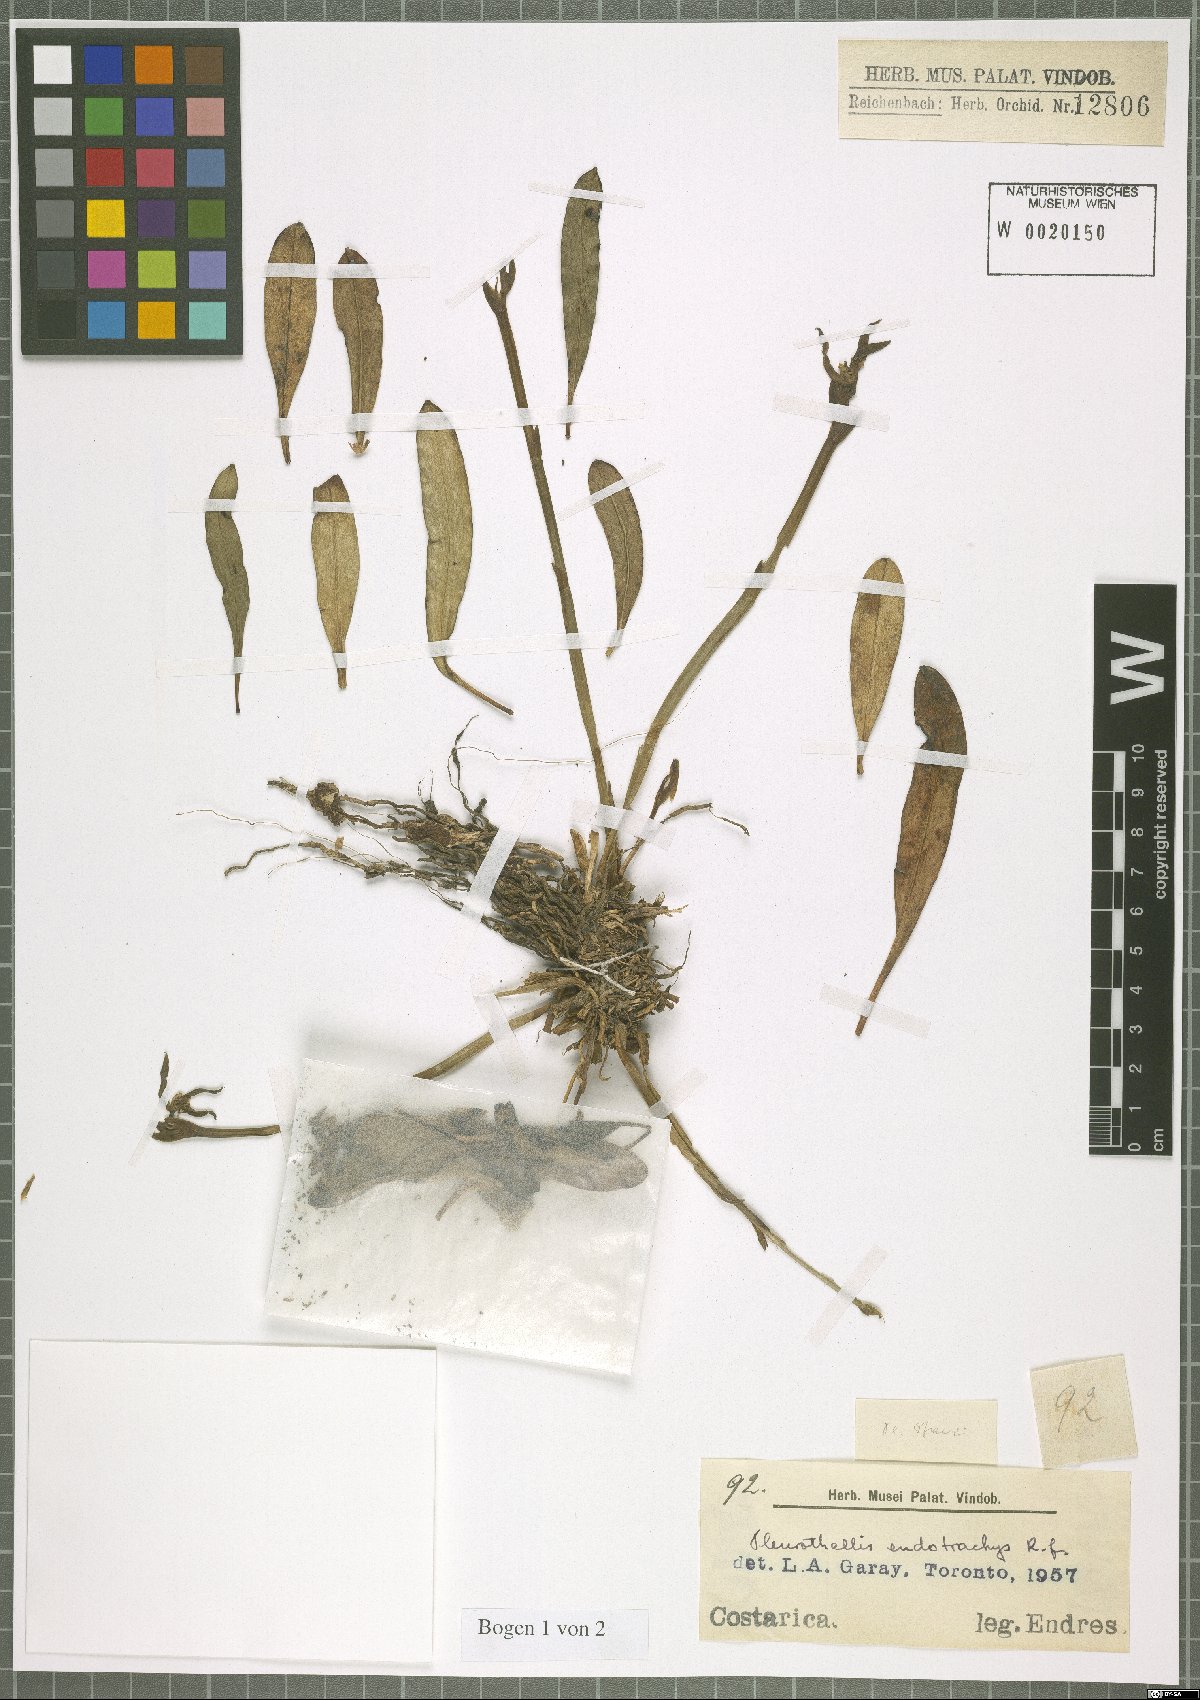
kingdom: Plantae
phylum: Tracheophyta
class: Liliopsida
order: Asparagales
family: Orchidaceae
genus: Specklinia
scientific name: Specklinia endotrachys
